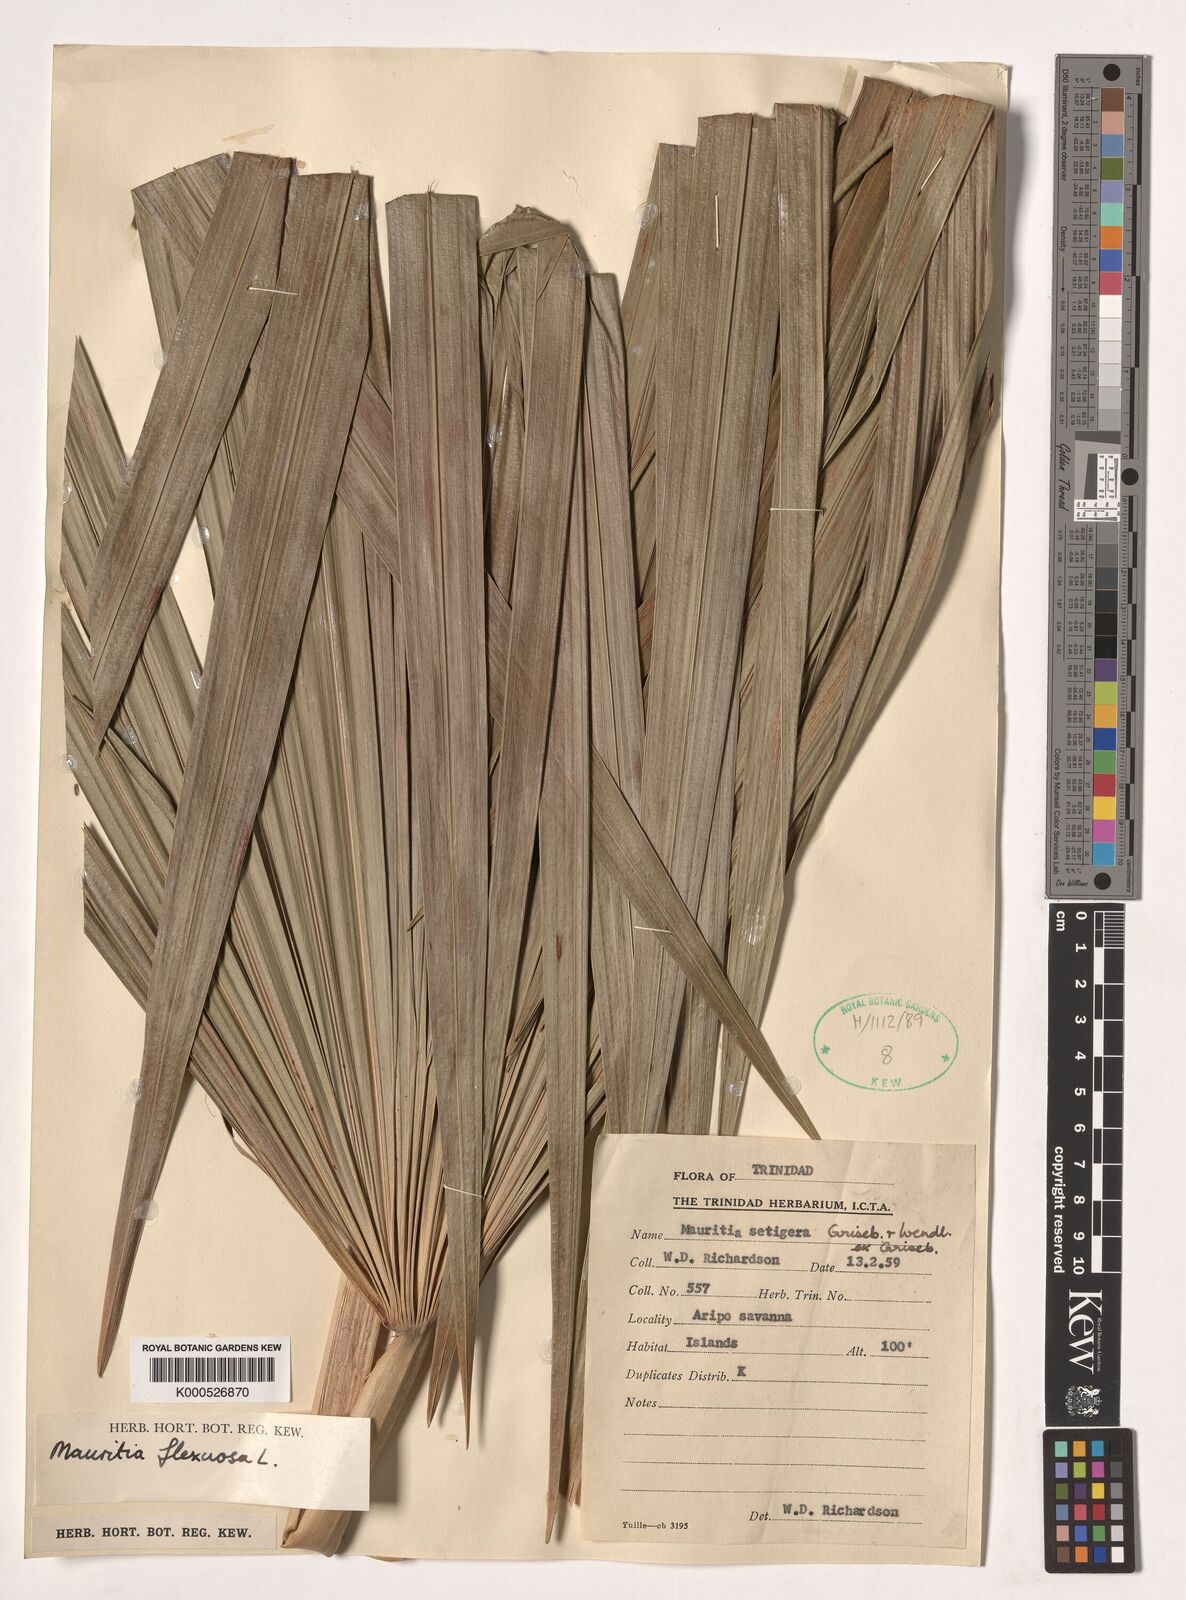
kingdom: Plantae
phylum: Tracheophyta
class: Liliopsida
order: Arecales
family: Arecaceae
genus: Mauritia
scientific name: Mauritia flexuosa
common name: Tree-of-life
